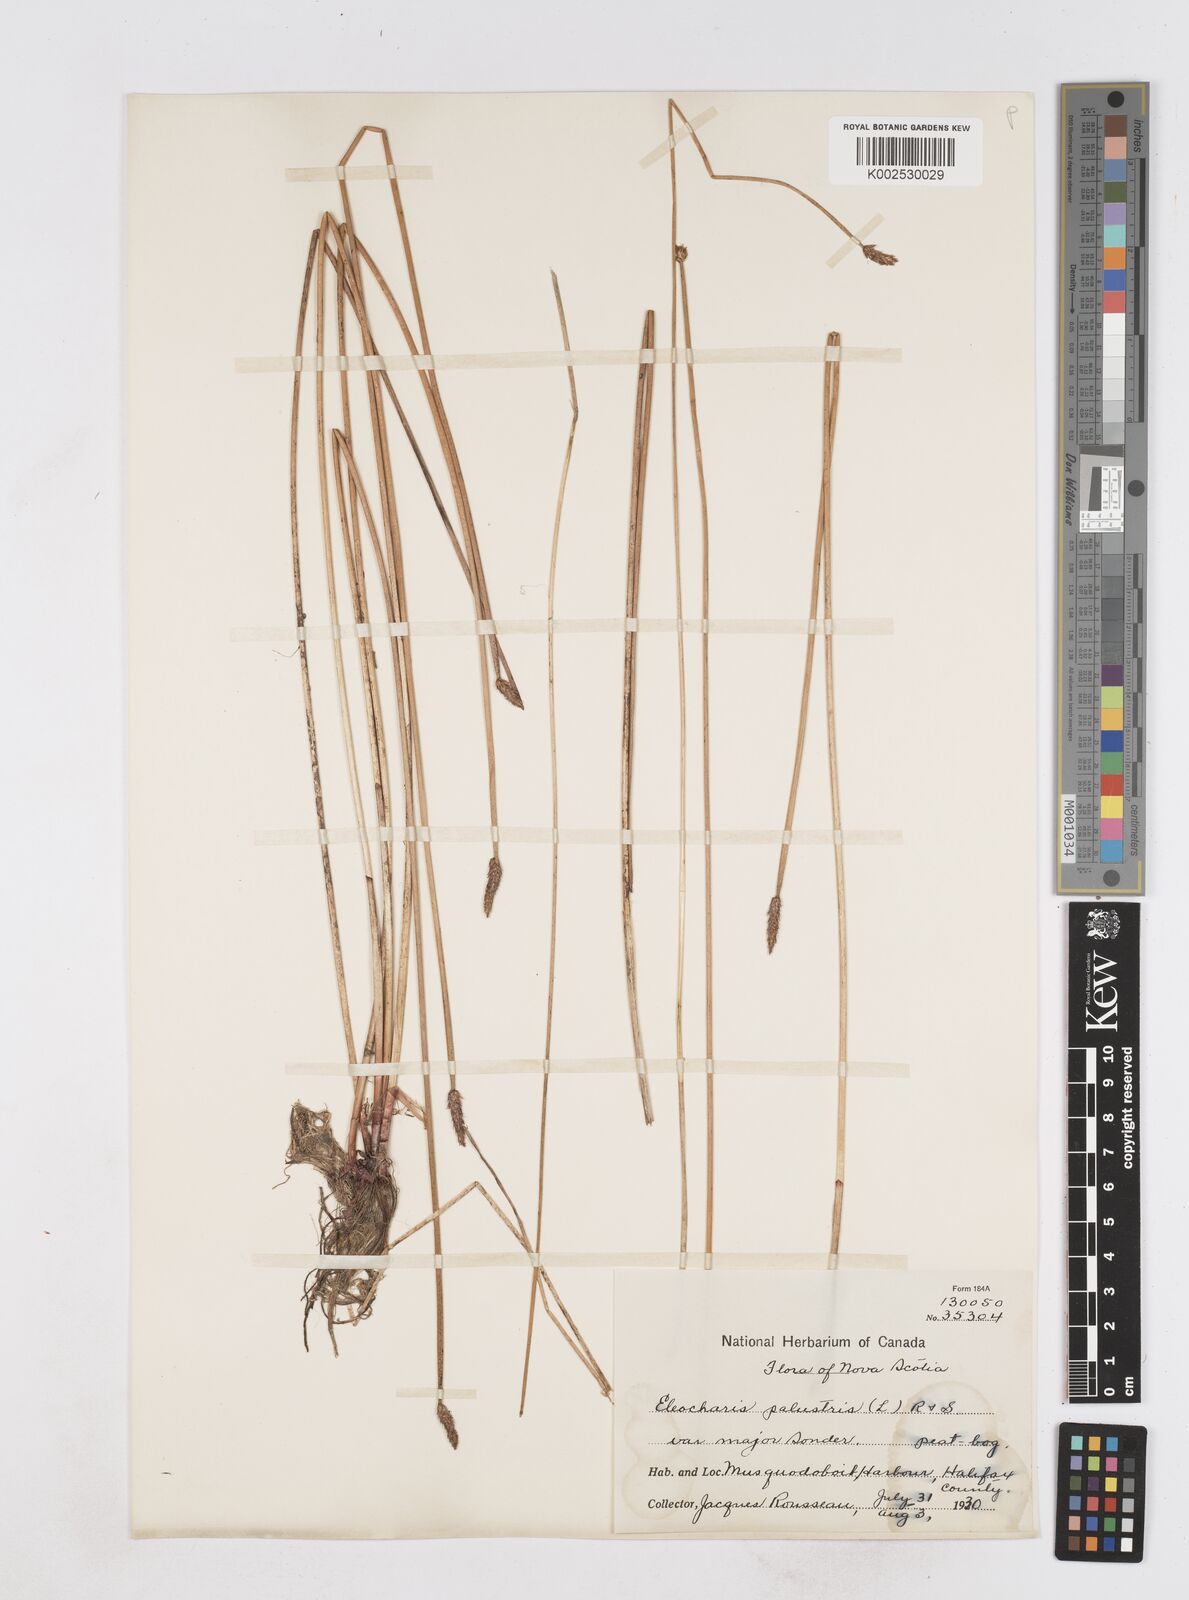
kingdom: Plantae
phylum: Tracheophyta
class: Liliopsida
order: Poales
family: Cyperaceae
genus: Eleocharis
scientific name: Eleocharis palustris
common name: Common spike-rush
